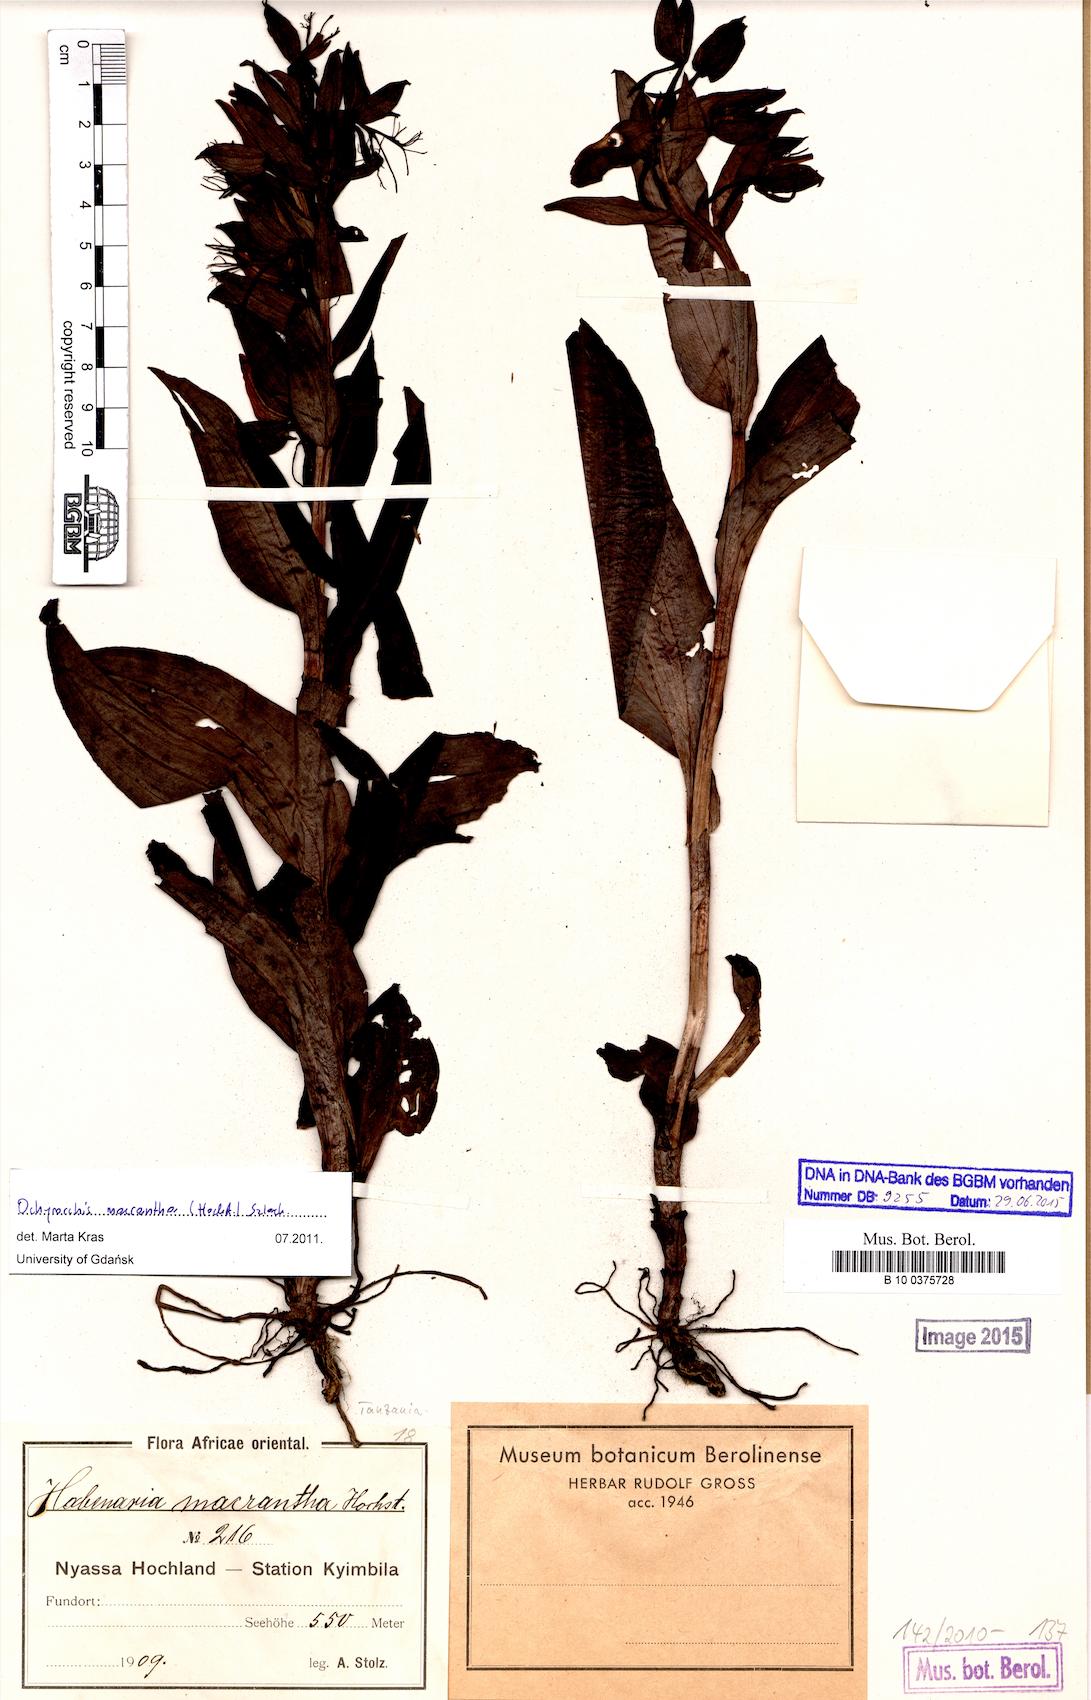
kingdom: Plantae
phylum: Tracheophyta
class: Liliopsida
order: Asparagales
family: Orchidaceae
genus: Habenaria
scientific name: Habenaria macrantha
